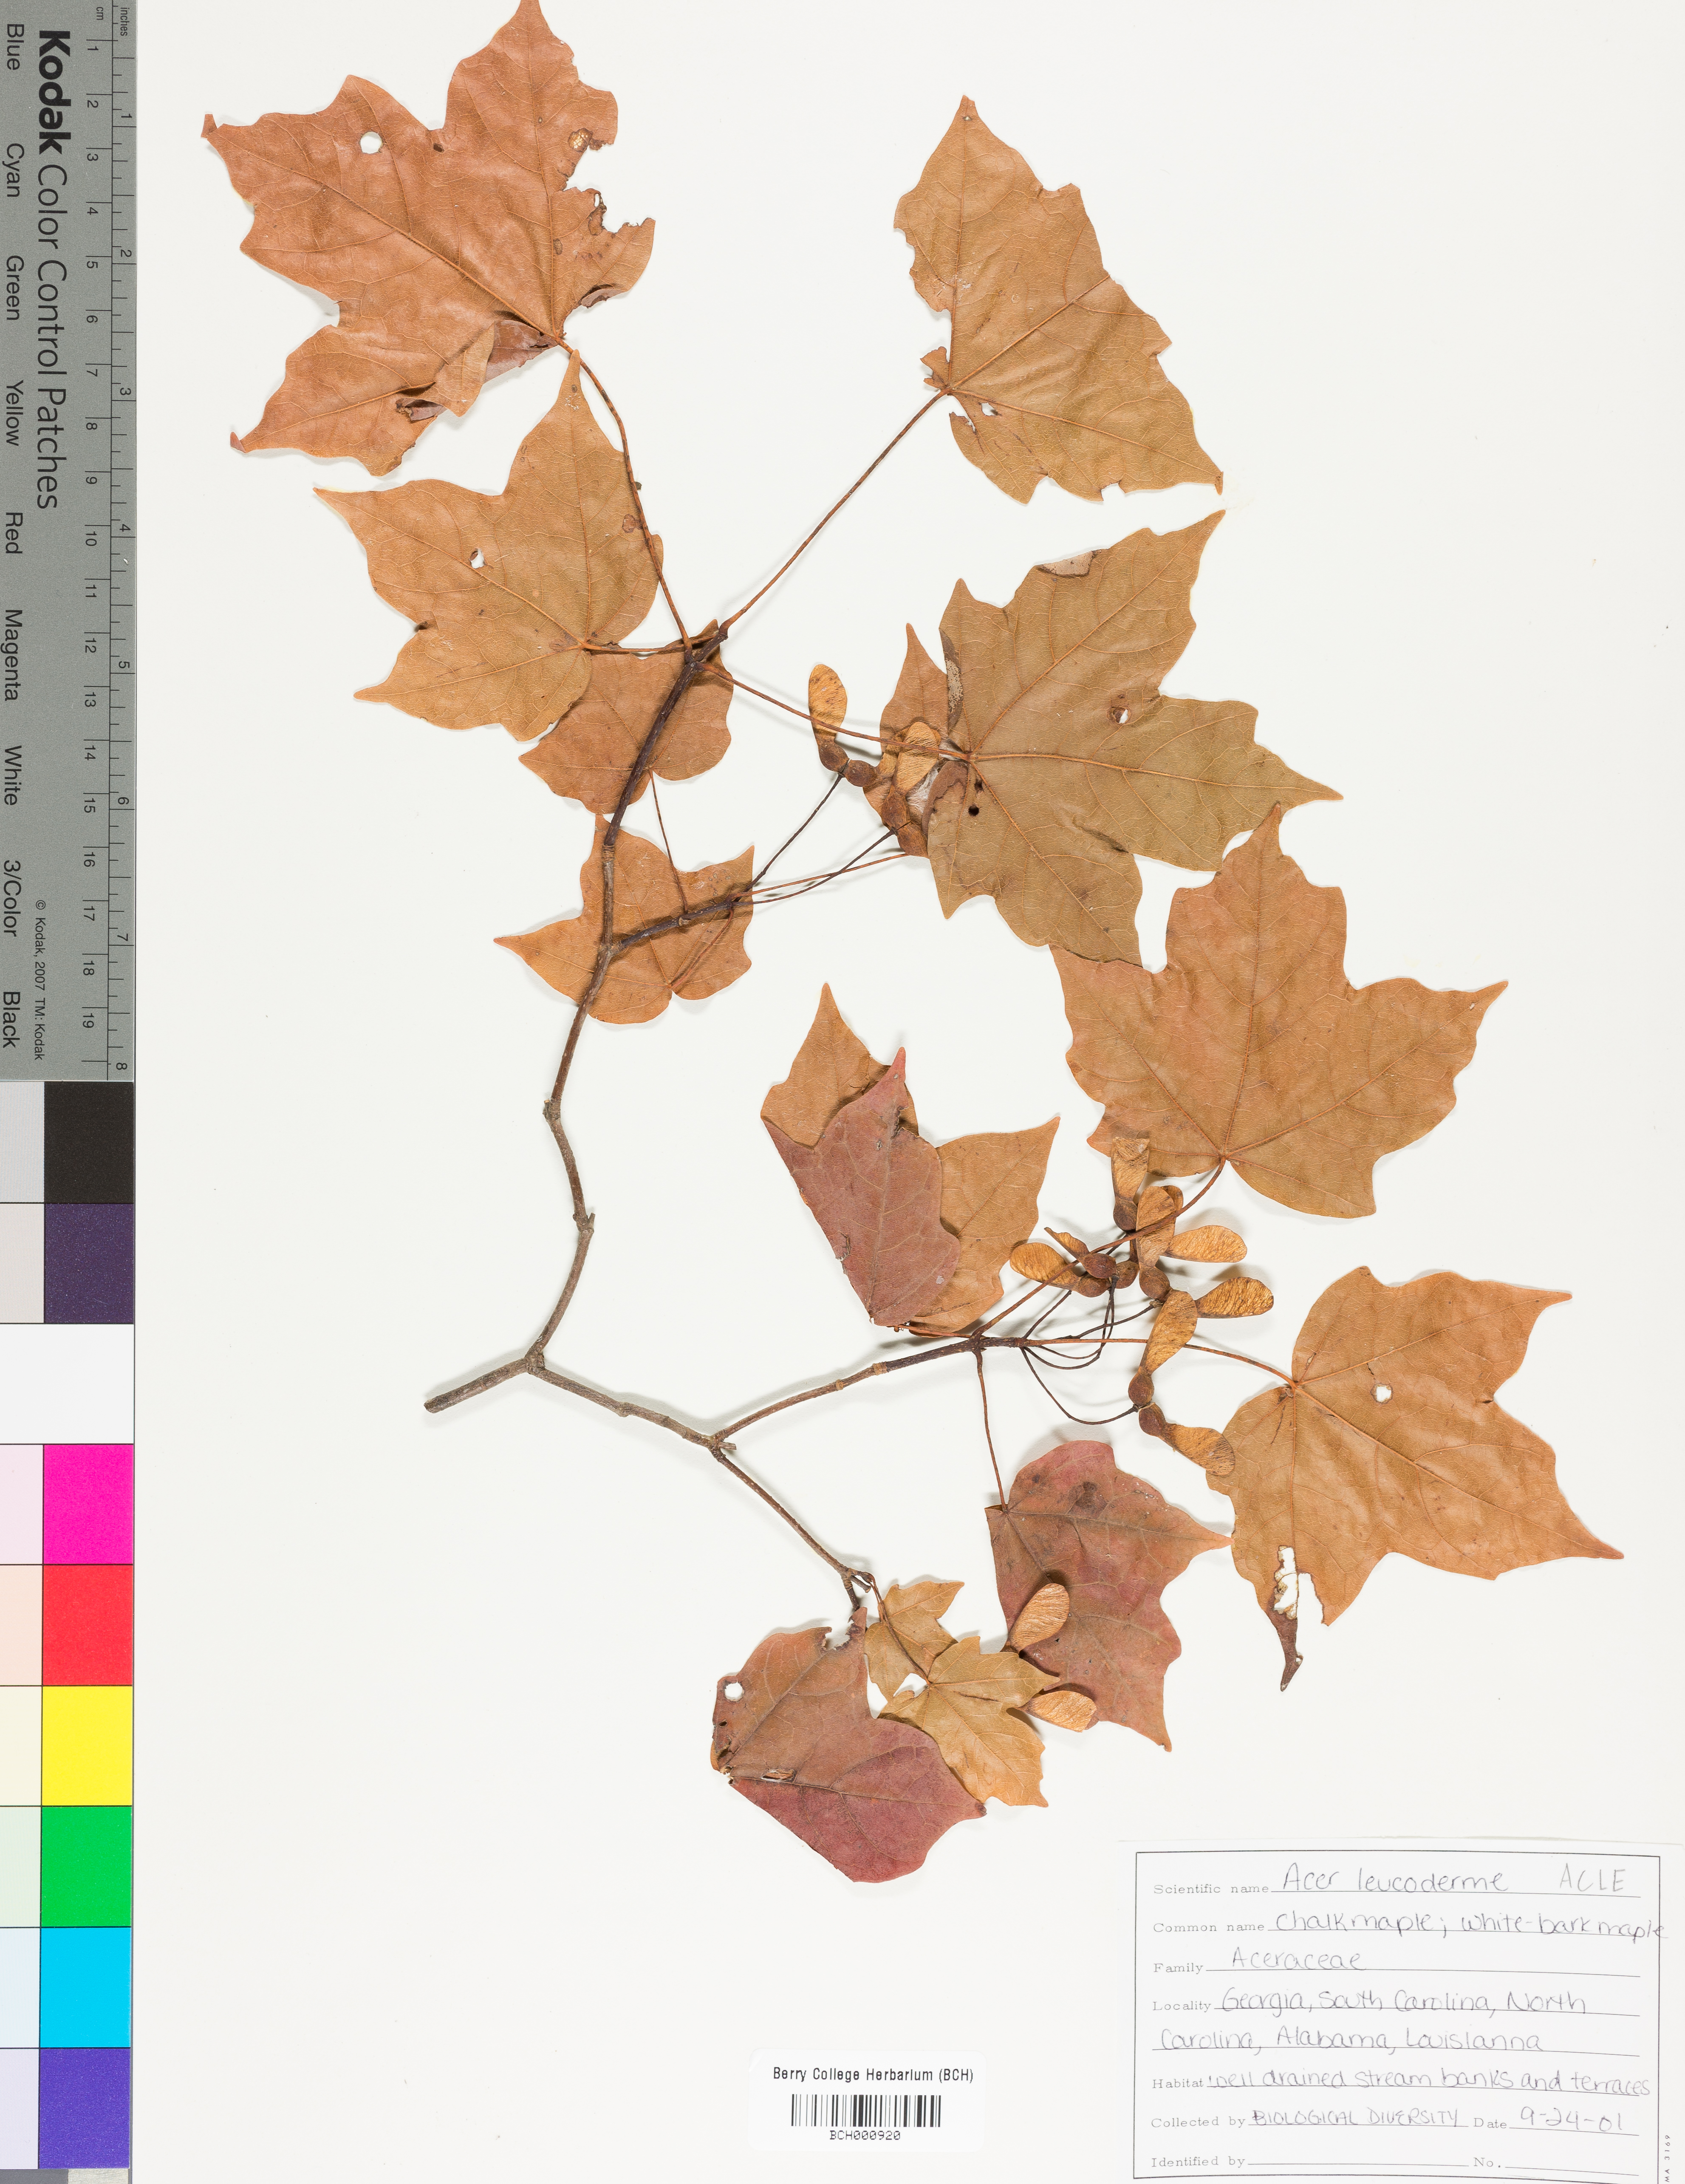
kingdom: Plantae
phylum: Tracheophyta
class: Magnoliopsida
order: Sapindales
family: Sapindaceae
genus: Acer
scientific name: Acer leucoderme
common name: Chalk maple
